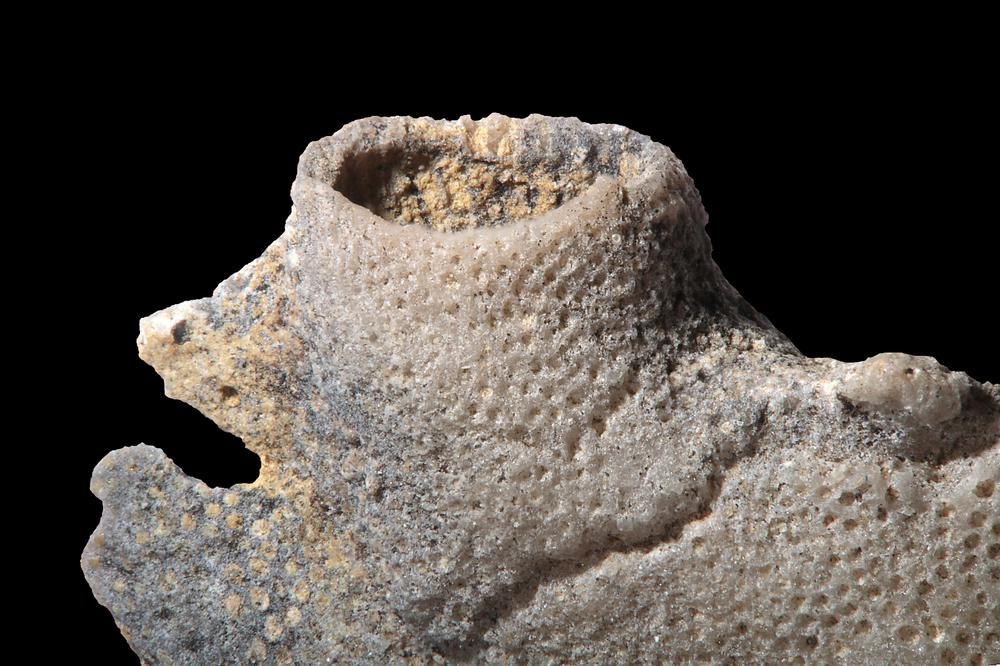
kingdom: Animalia
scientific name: Animalia
